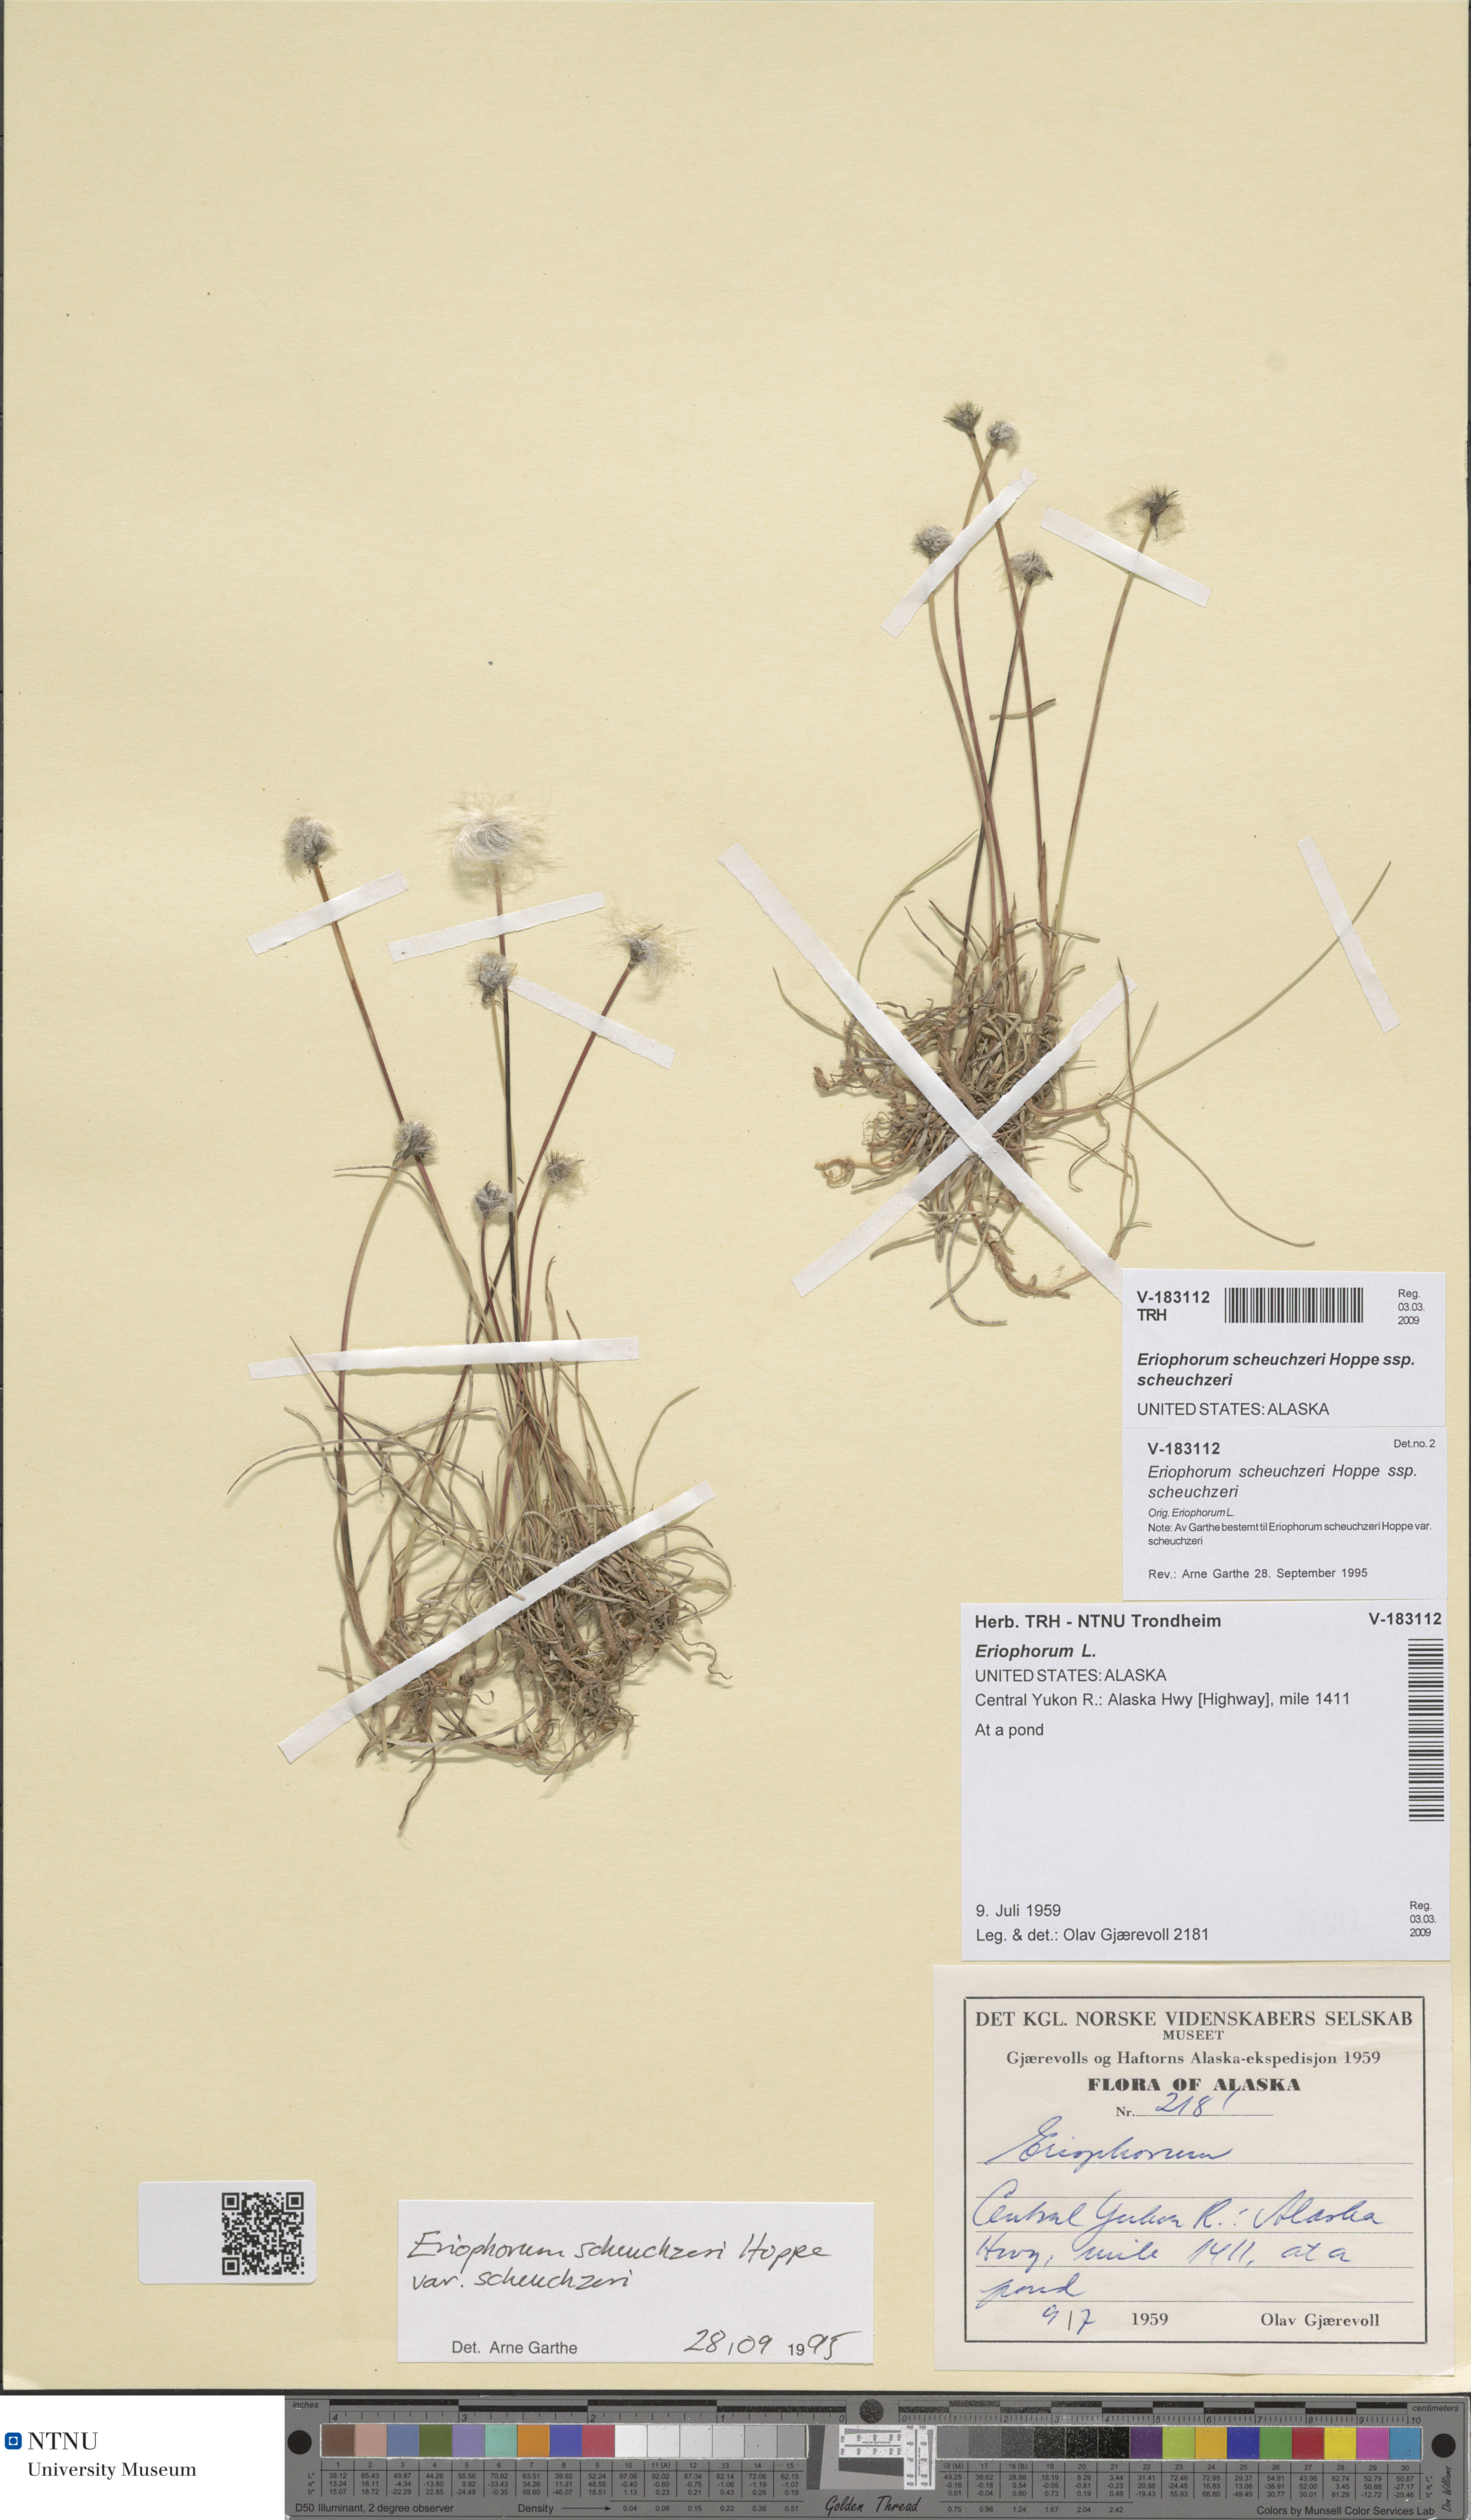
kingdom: Plantae
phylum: Tracheophyta
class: Liliopsida
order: Poales
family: Cyperaceae
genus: Eriophorum
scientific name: Eriophorum scheuchzeri
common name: Scheuchzer's cottongrass
